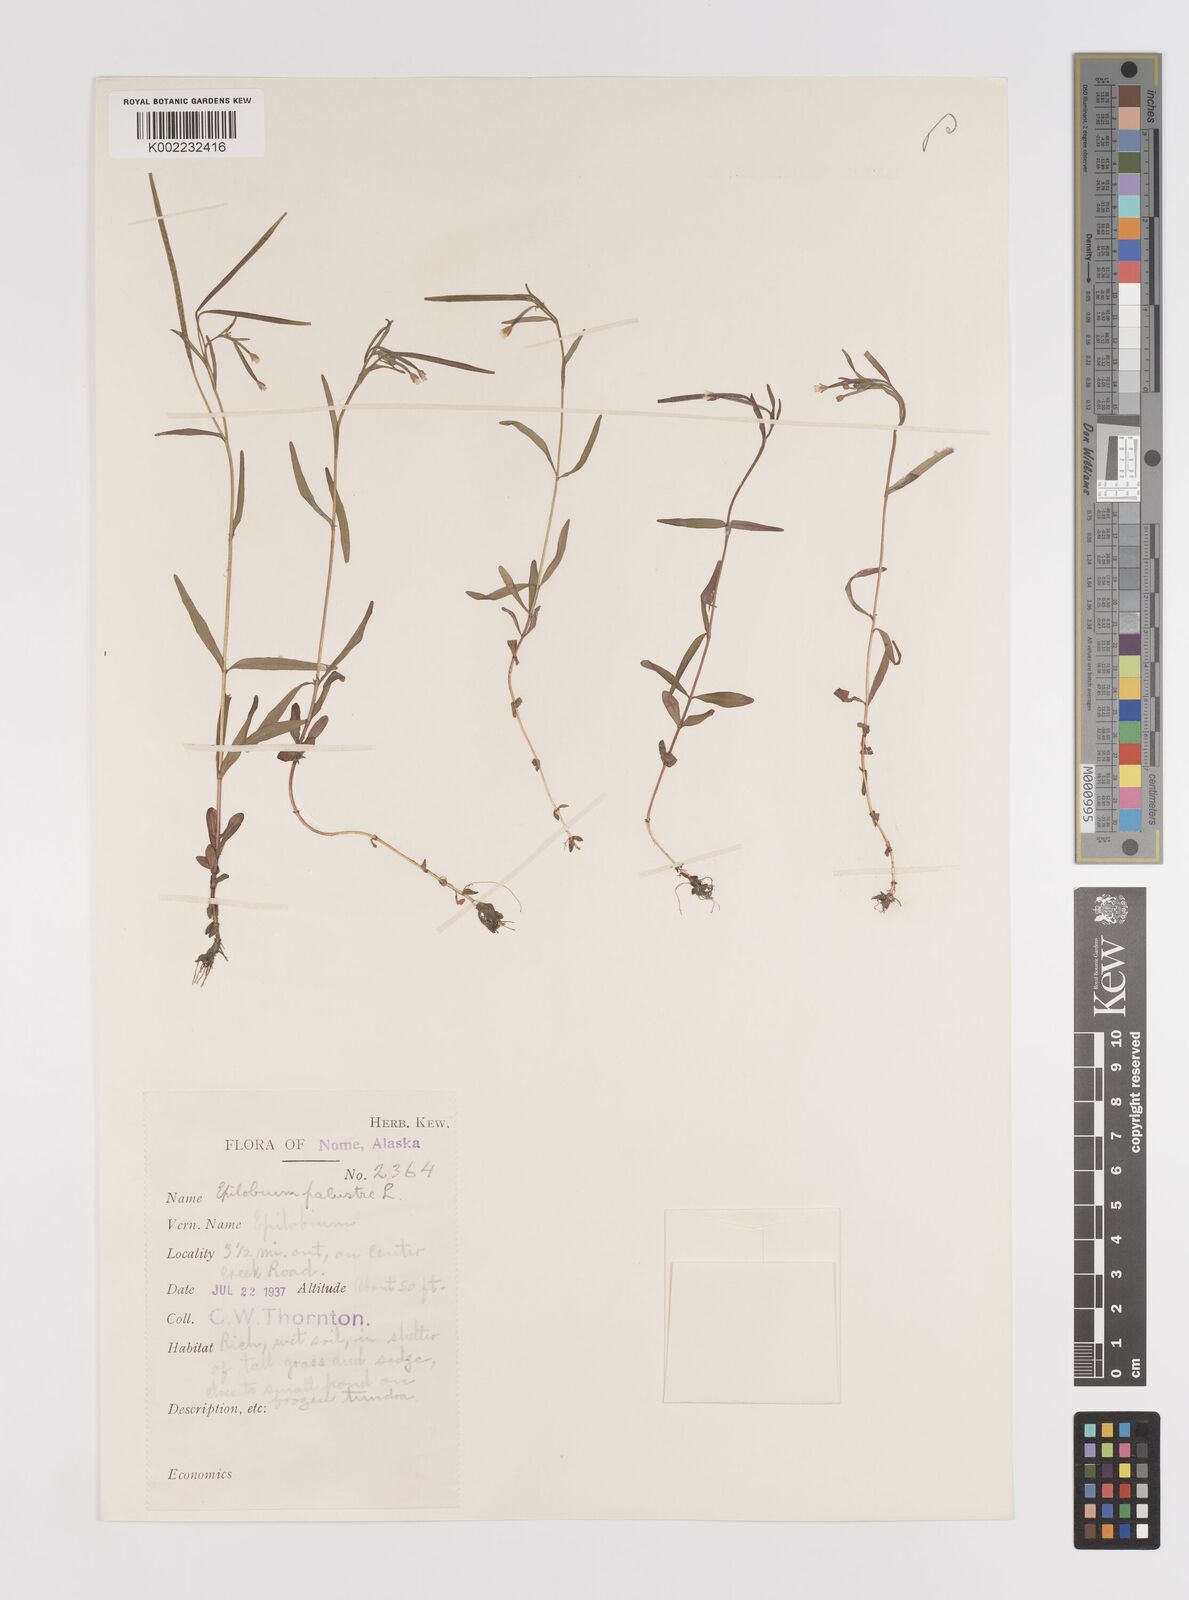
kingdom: Plantae
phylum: Tracheophyta
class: Magnoliopsida
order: Myrtales
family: Onagraceae
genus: Epilobium
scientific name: Epilobium palustre
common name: Marsh willowherb
